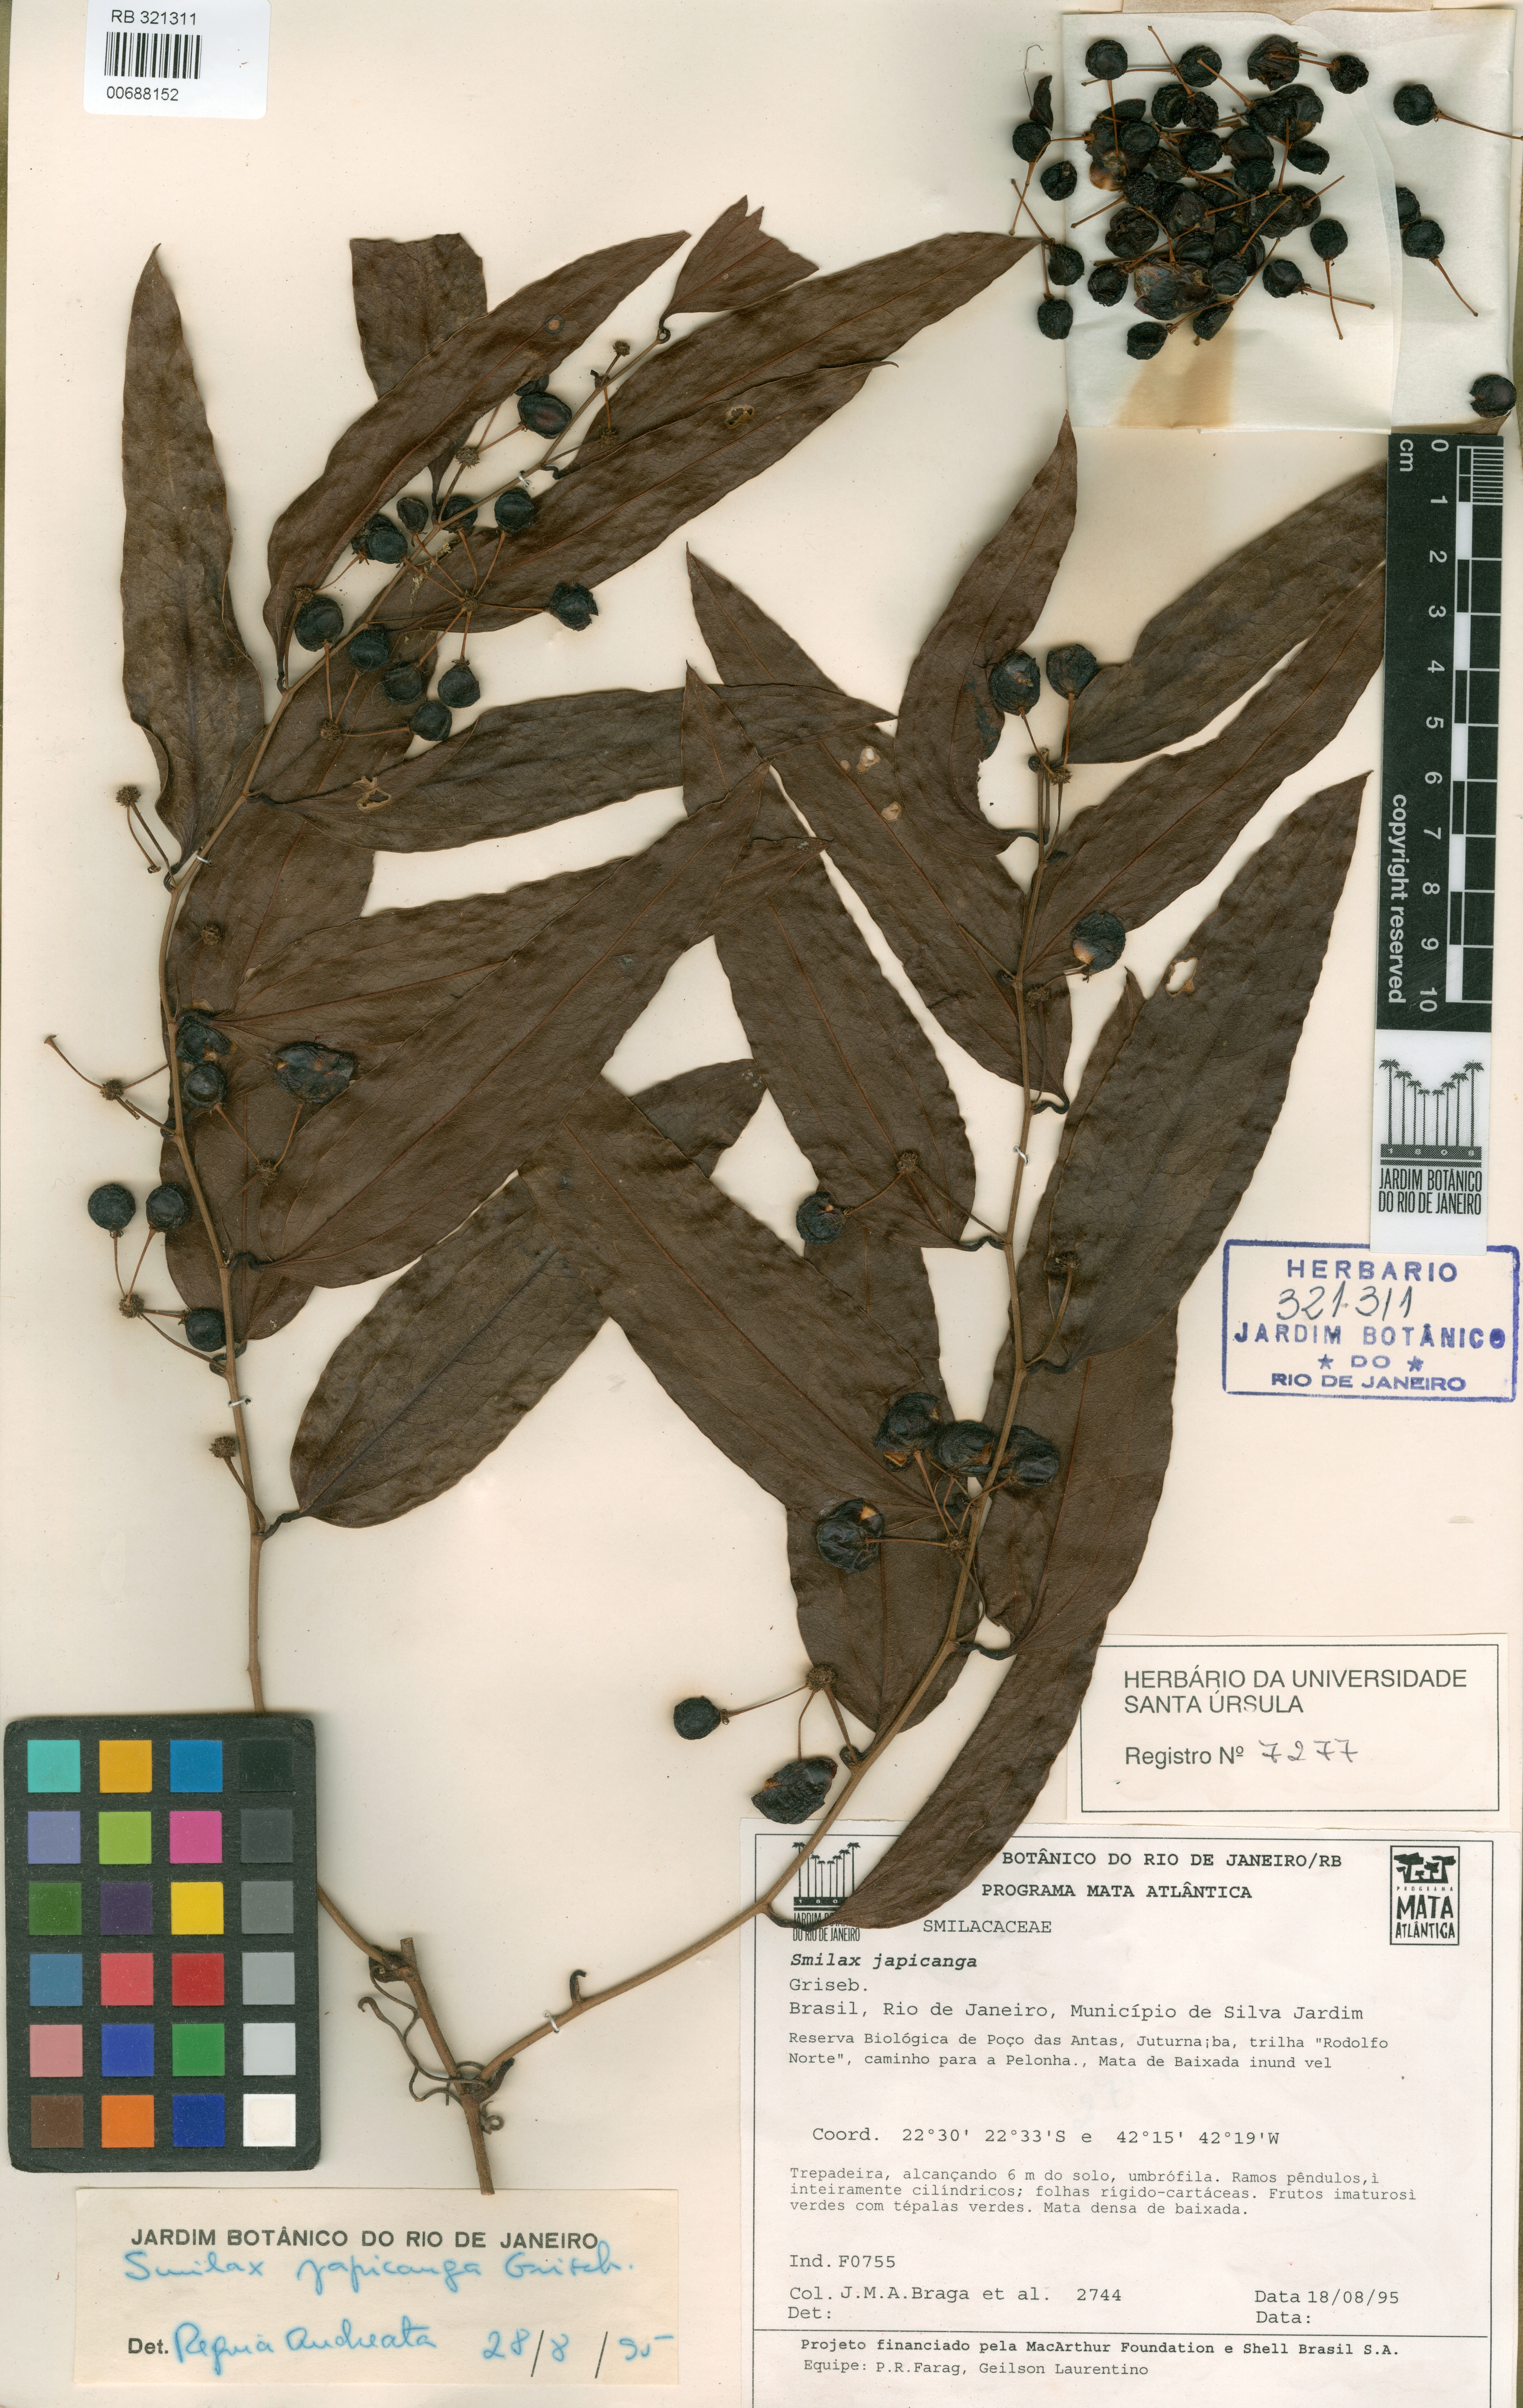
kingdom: Plantae
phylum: Tracheophyta
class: Liliopsida
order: Liliales
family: Smilacaceae
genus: Smilax
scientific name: Smilax japicanga
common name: Japicanga
